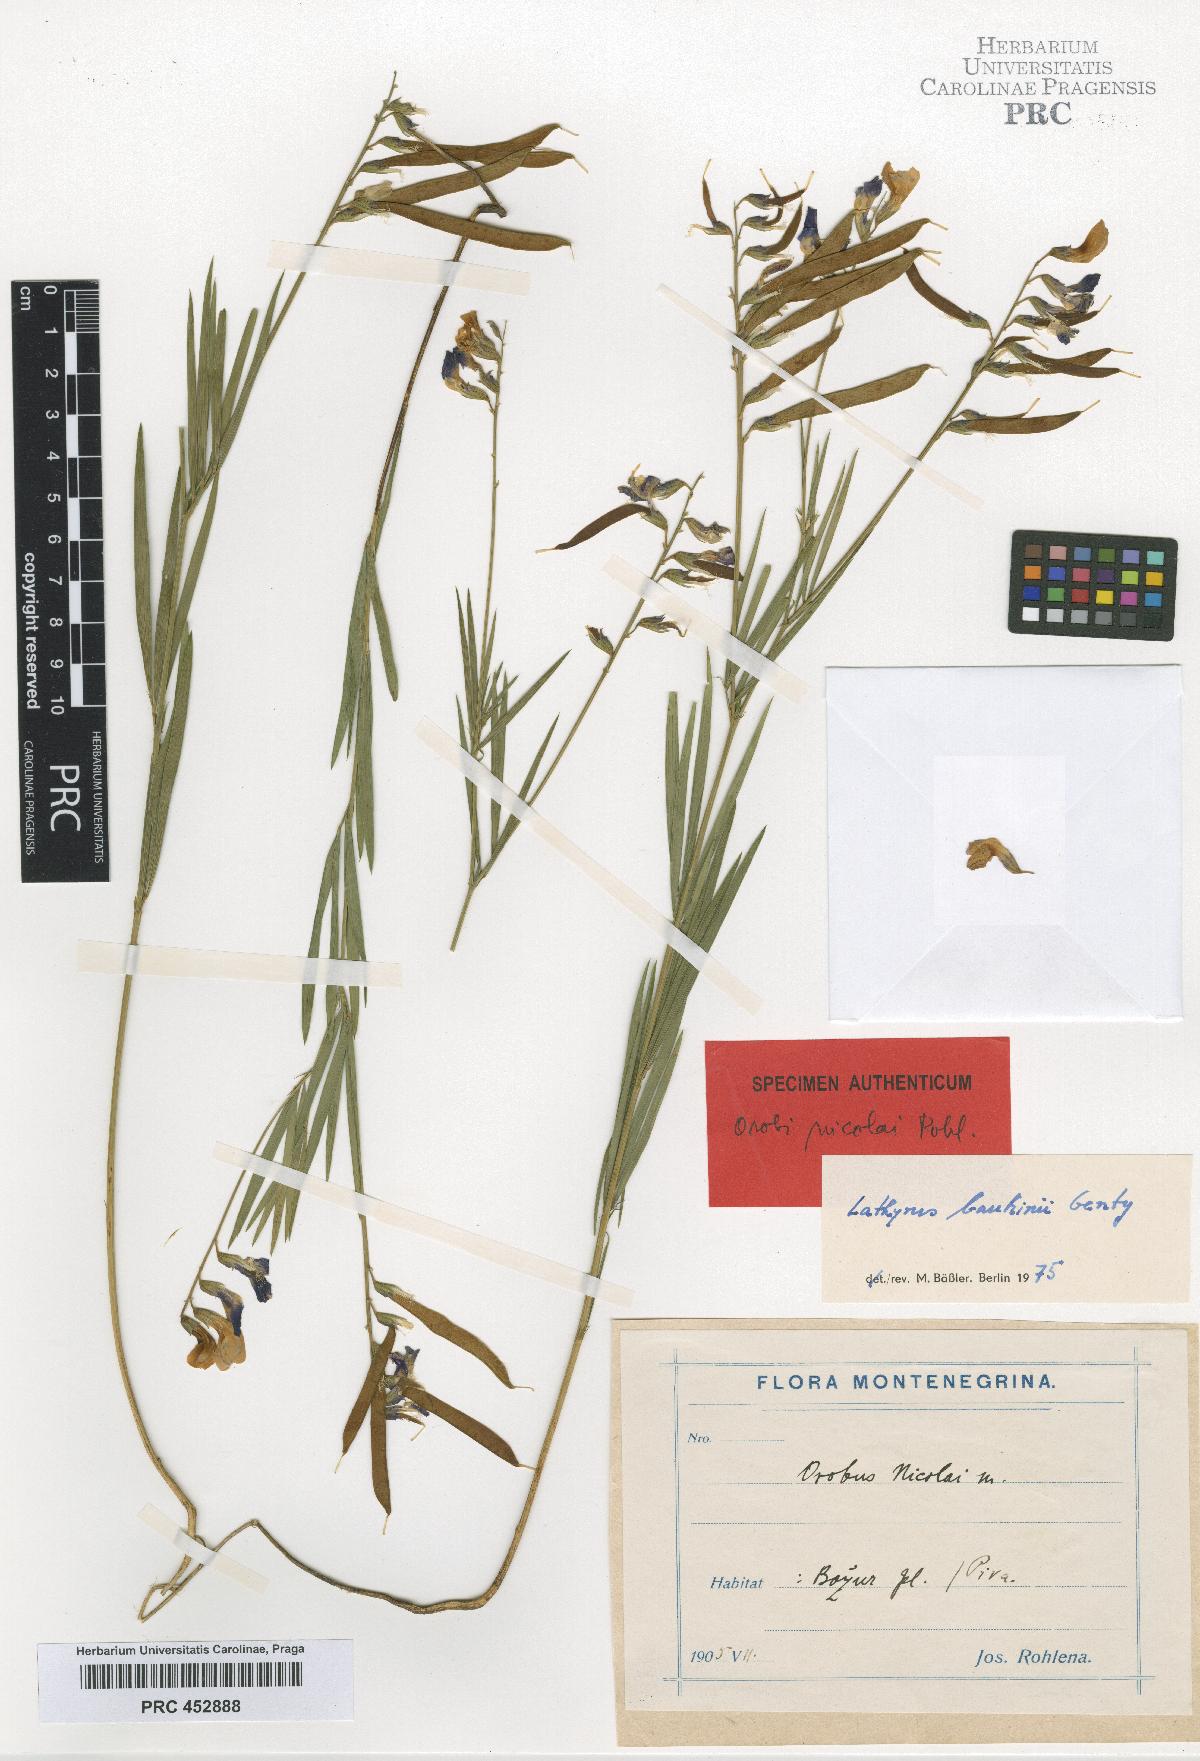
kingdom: Plantae
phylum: Tracheophyta
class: Magnoliopsida
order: Fabales
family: Fabaceae
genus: Lathyrus
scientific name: Lathyrus bauhini
